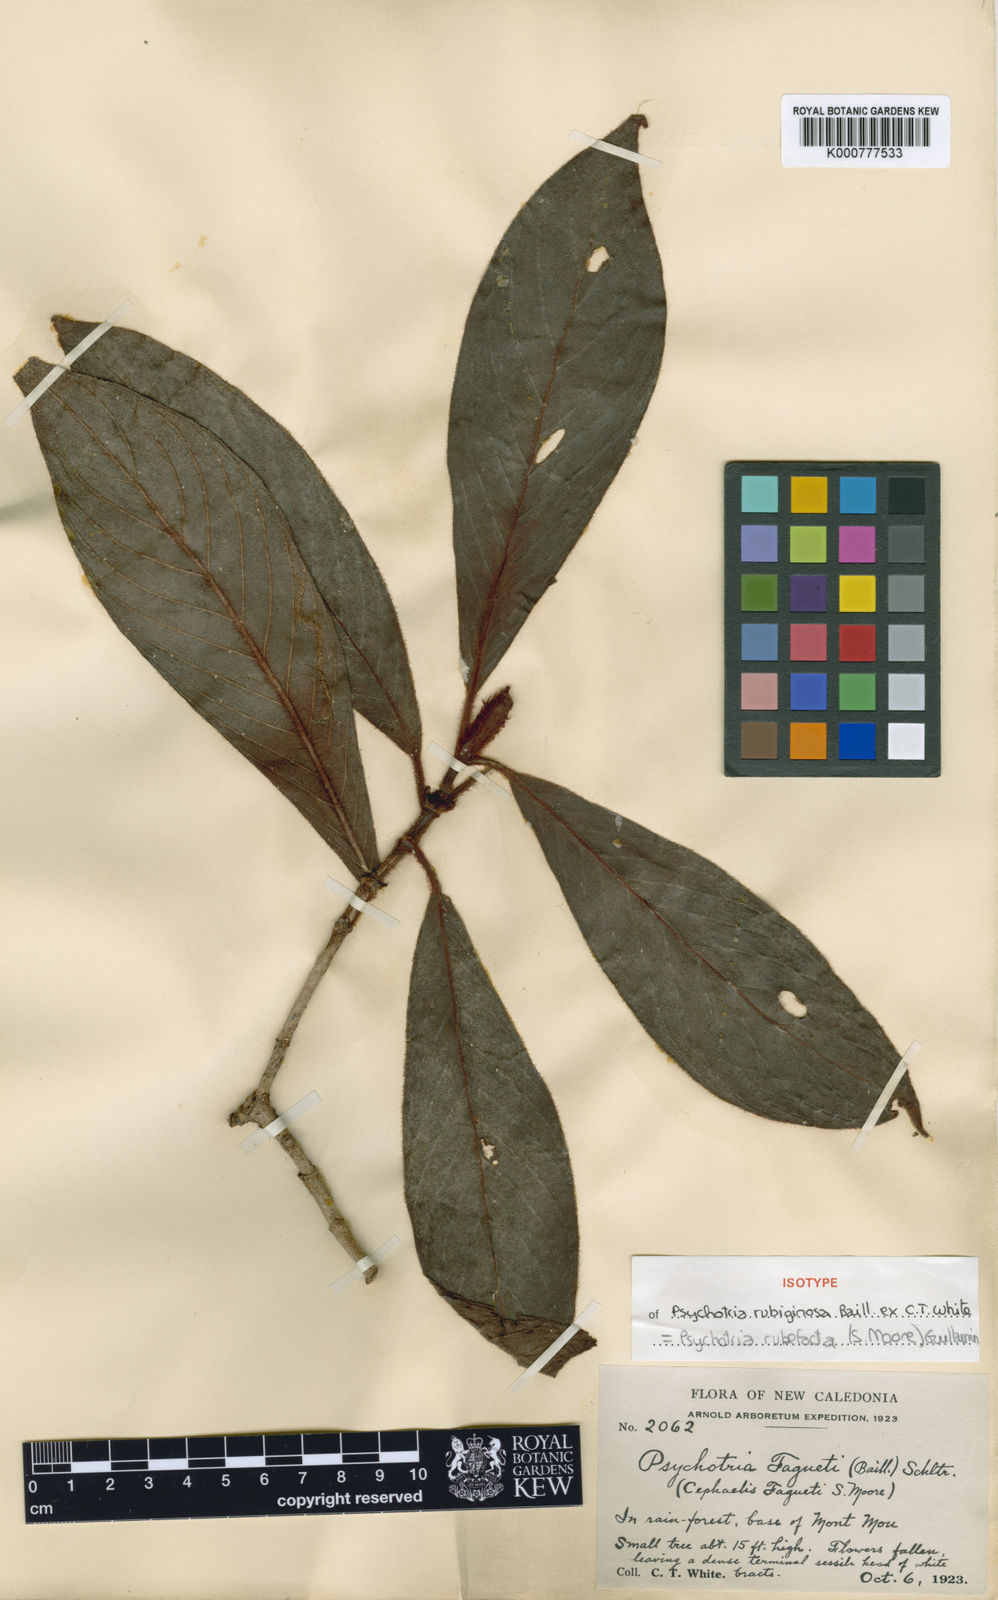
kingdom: Plantae
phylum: Tracheophyta
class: Magnoliopsida
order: Gentianales
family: Rubiaceae
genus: Psychotria
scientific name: Psychotria rubefacta
